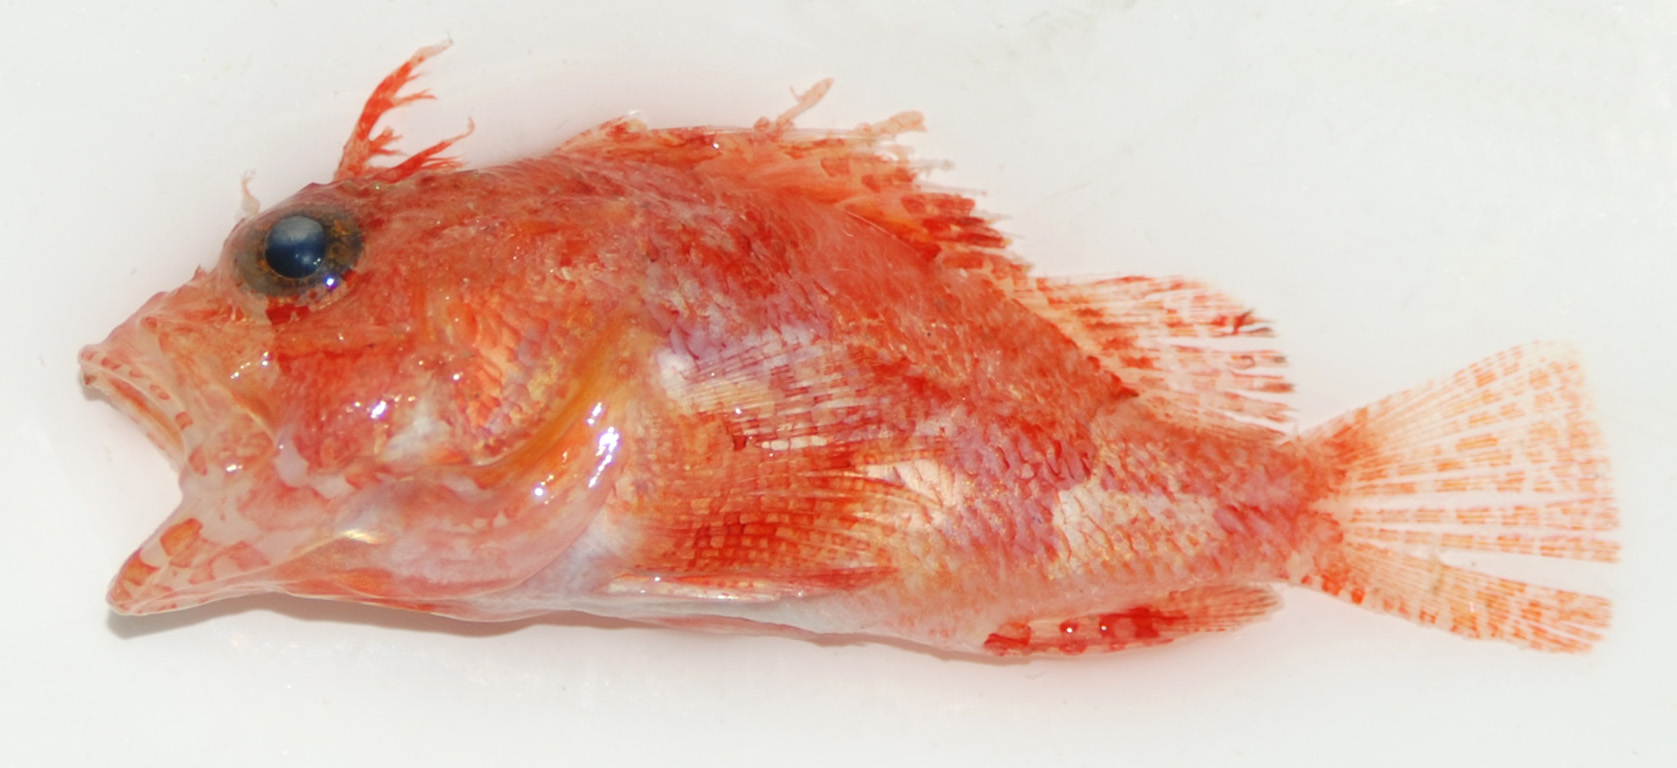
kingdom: Animalia
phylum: Chordata
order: Scorpaeniformes
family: Scorpaenidae
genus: Neoscorpaena
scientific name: Neoscorpaena nielseni
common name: Spotfin scorpionfish
